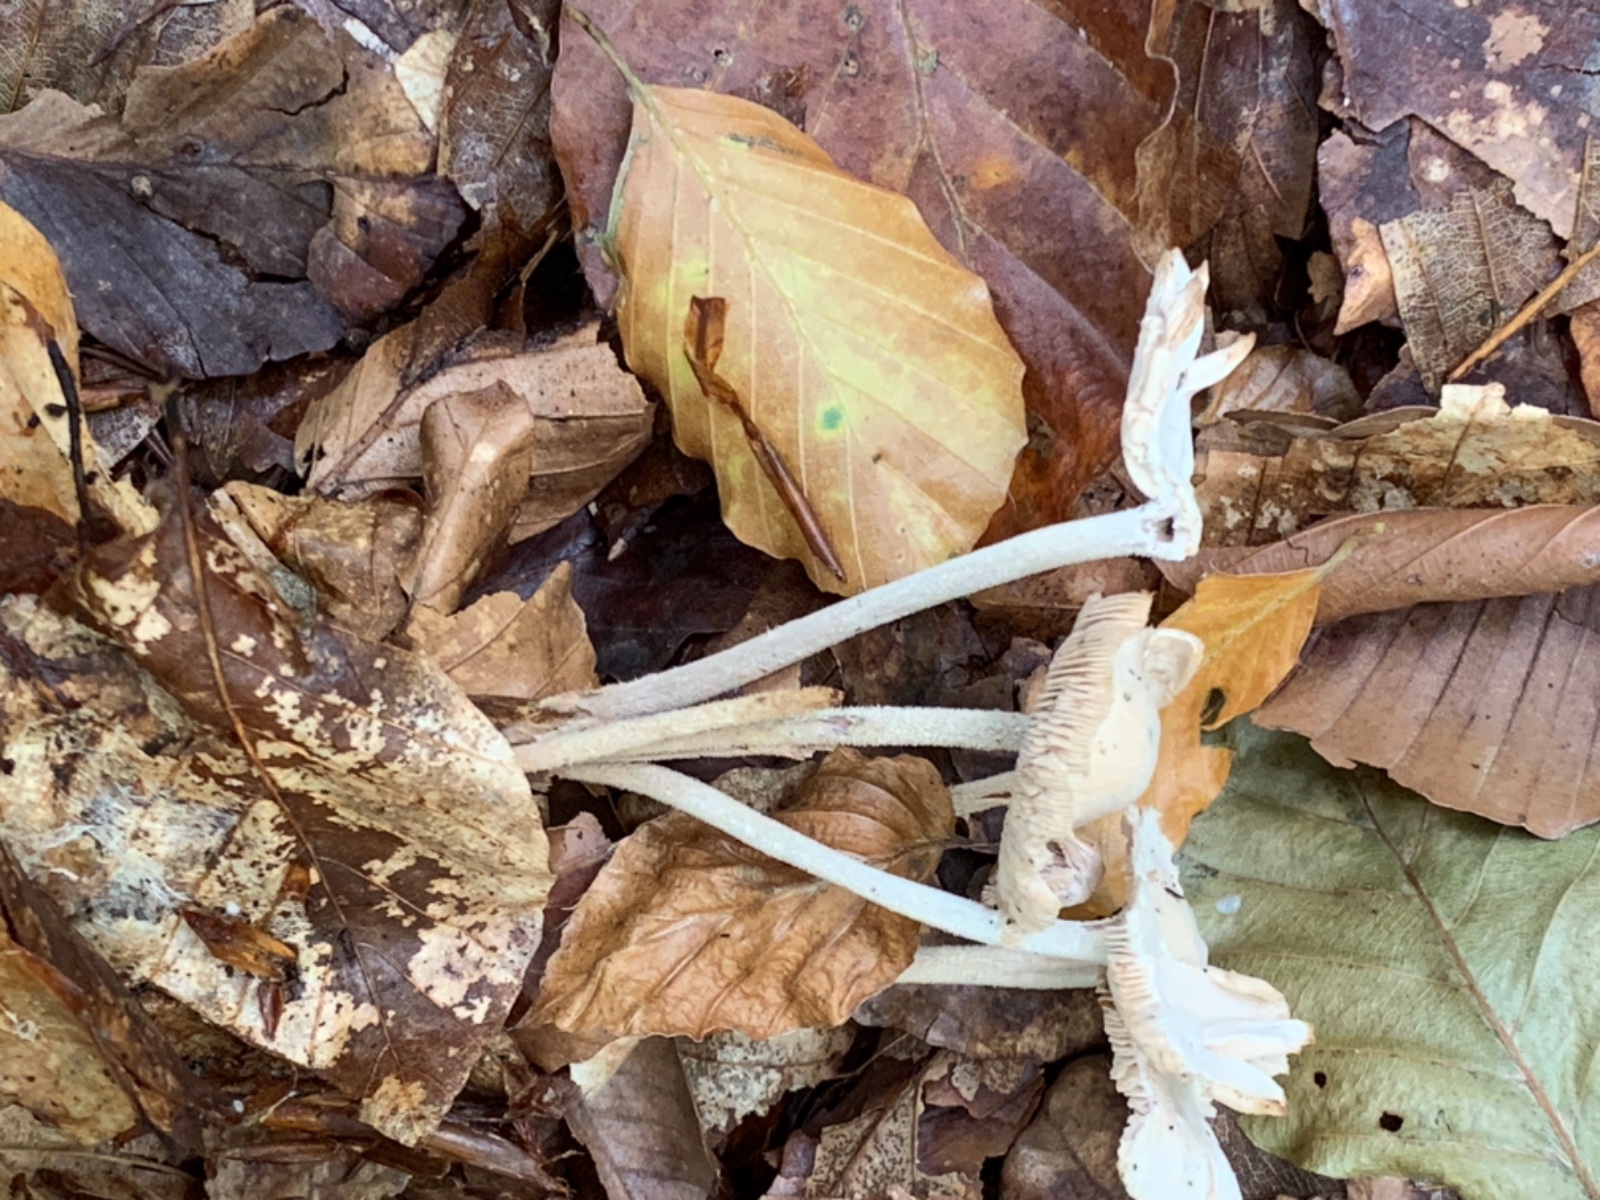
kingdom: Fungi
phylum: Basidiomycota
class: Agaricomycetes
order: Agaricales
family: Omphalotaceae
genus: Collybiopsis
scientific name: Collybiopsis confluens
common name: knippe-fladhat
